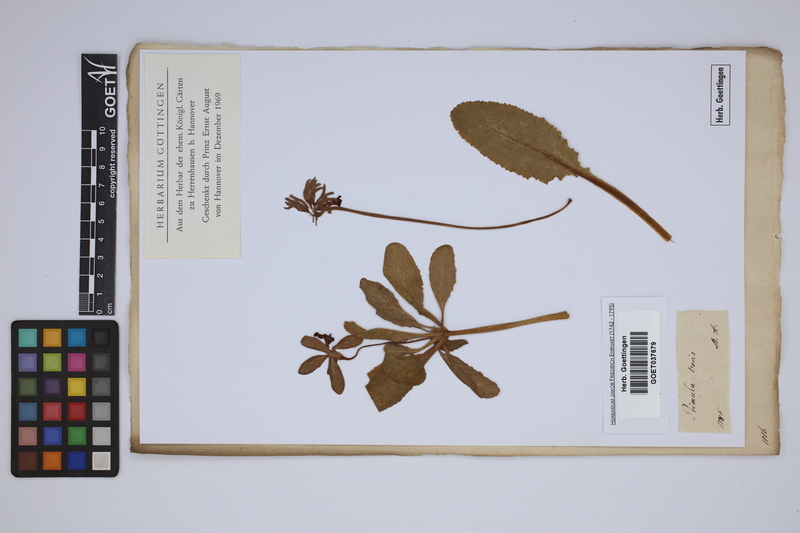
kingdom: Plantae
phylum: Tracheophyta
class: Magnoliopsida
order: Ericales
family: Primulaceae
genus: Primula
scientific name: Primula veris
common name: Cowslip
